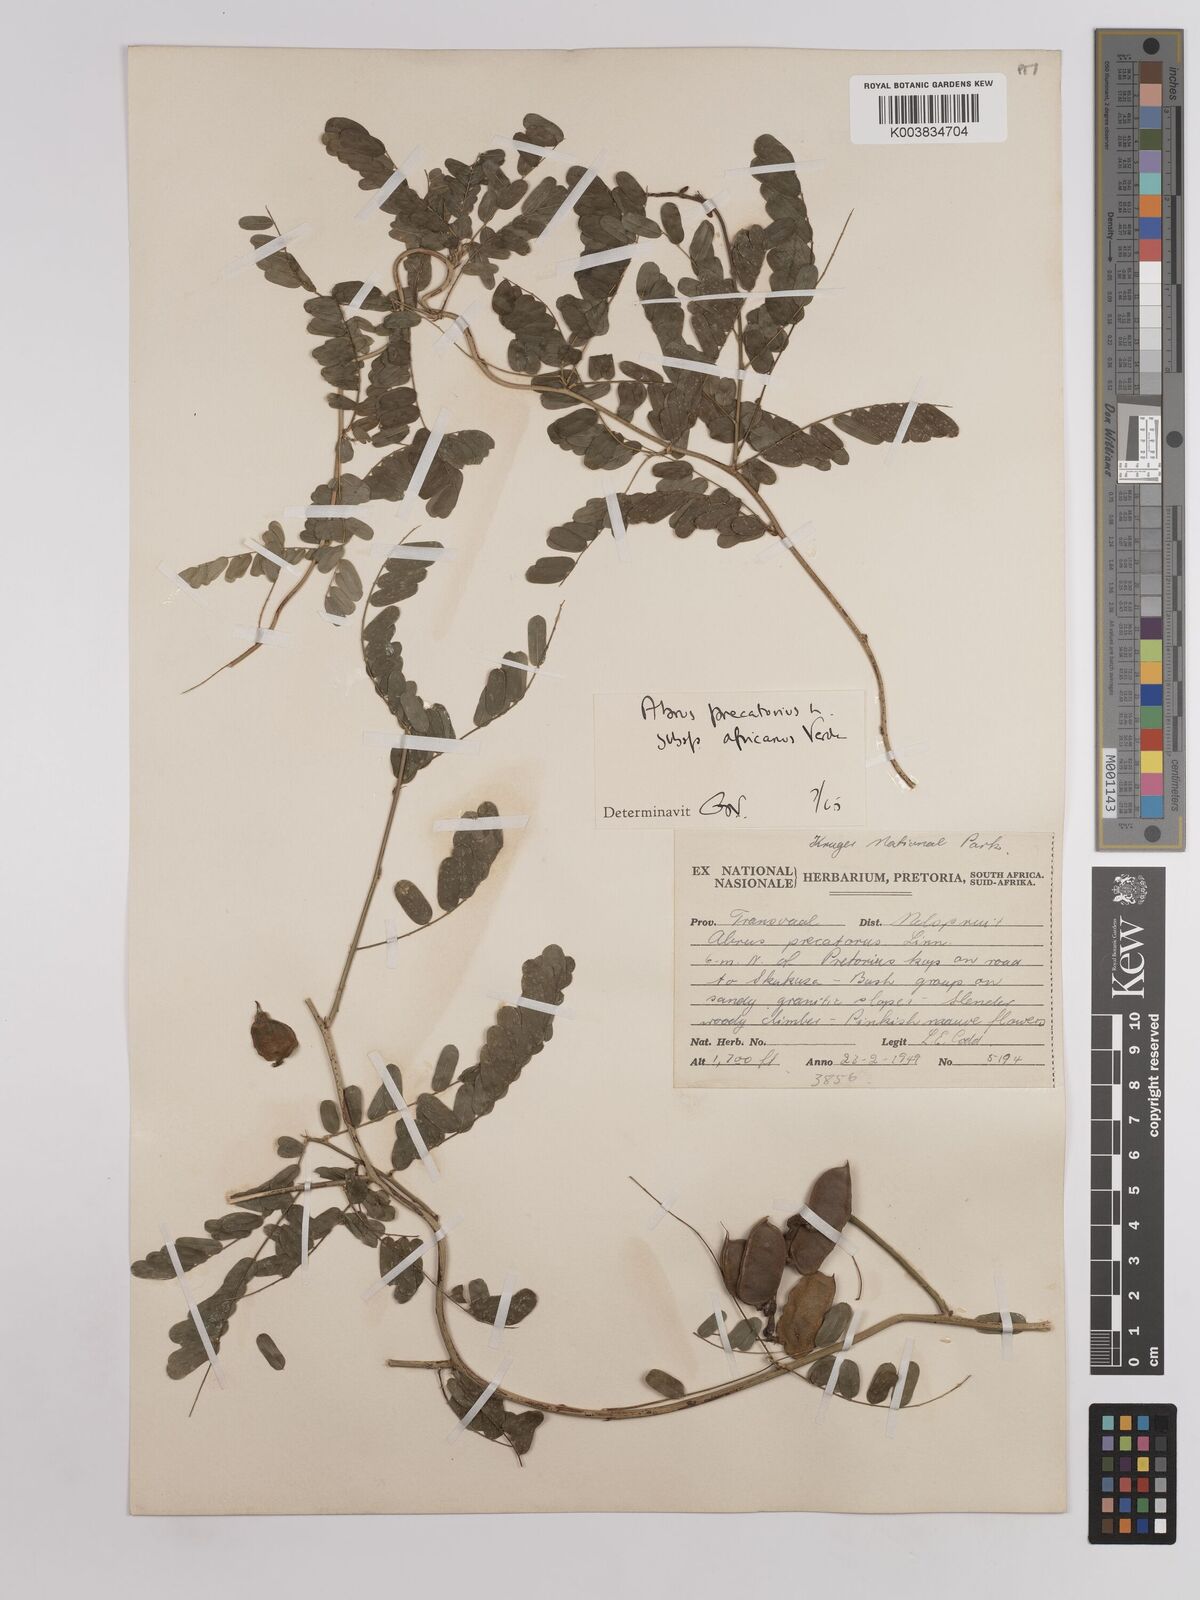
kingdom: Plantae
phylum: Tracheophyta
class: Magnoliopsida
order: Fabales
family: Fabaceae
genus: Abrus
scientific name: Abrus precatorius
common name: Rosarypea
